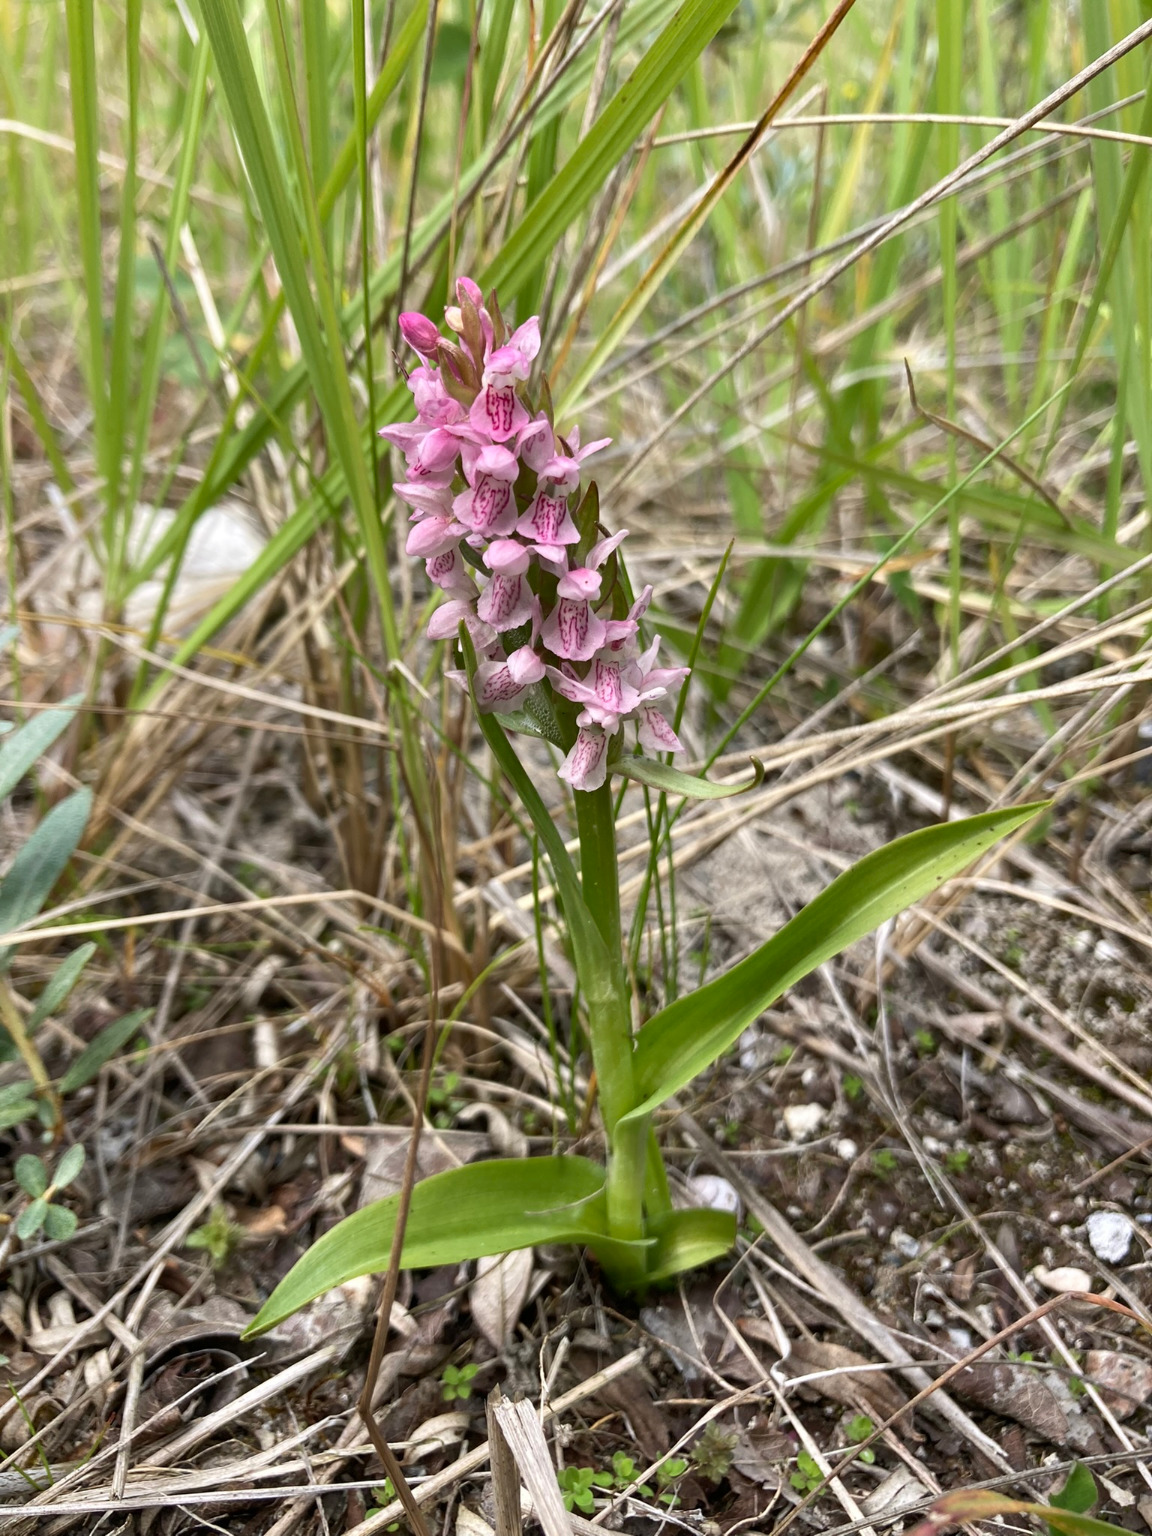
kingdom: Plantae
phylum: Tracheophyta
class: Liliopsida
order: Asparagales
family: Orchidaceae
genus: Dactylorhiza
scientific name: Dactylorhiza incarnata
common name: Kødfarvet gøgeurt
